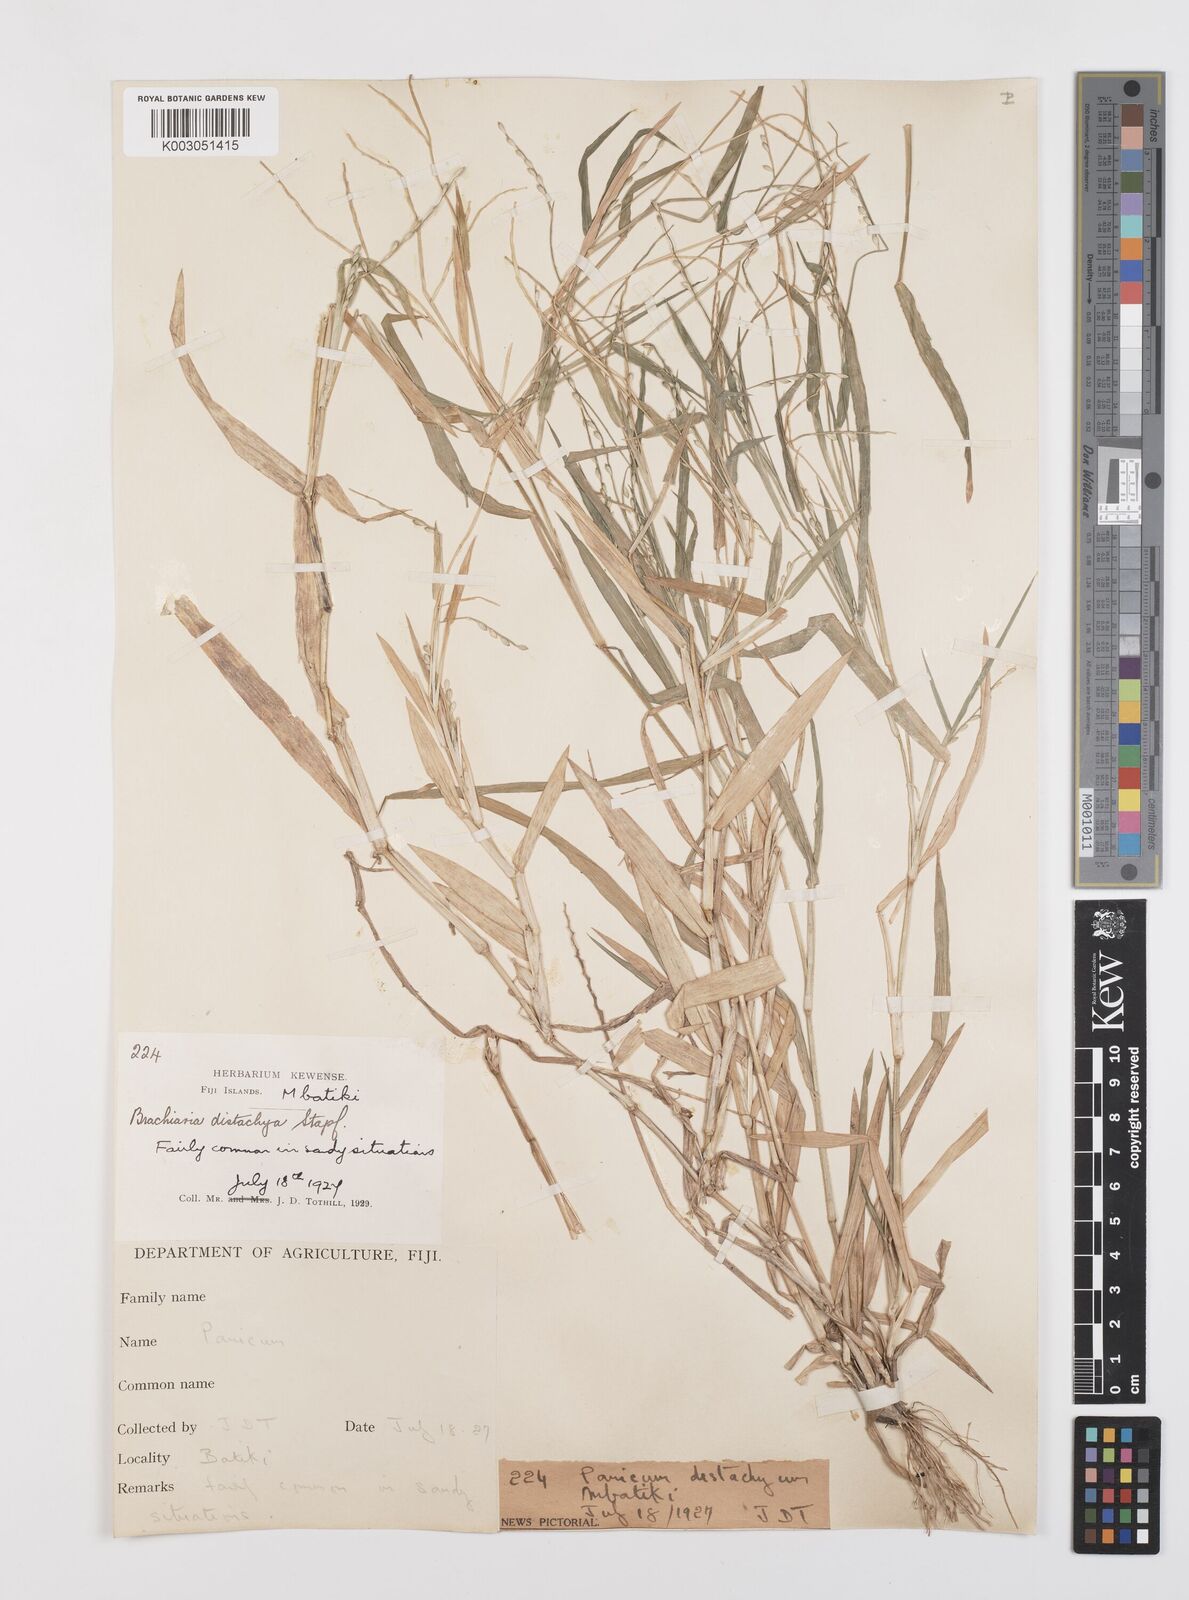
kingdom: Plantae
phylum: Tracheophyta
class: Liliopsida
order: Poales
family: Poaceae
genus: Urochloa
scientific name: Urochloa subquadripara
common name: Armgrass millet
